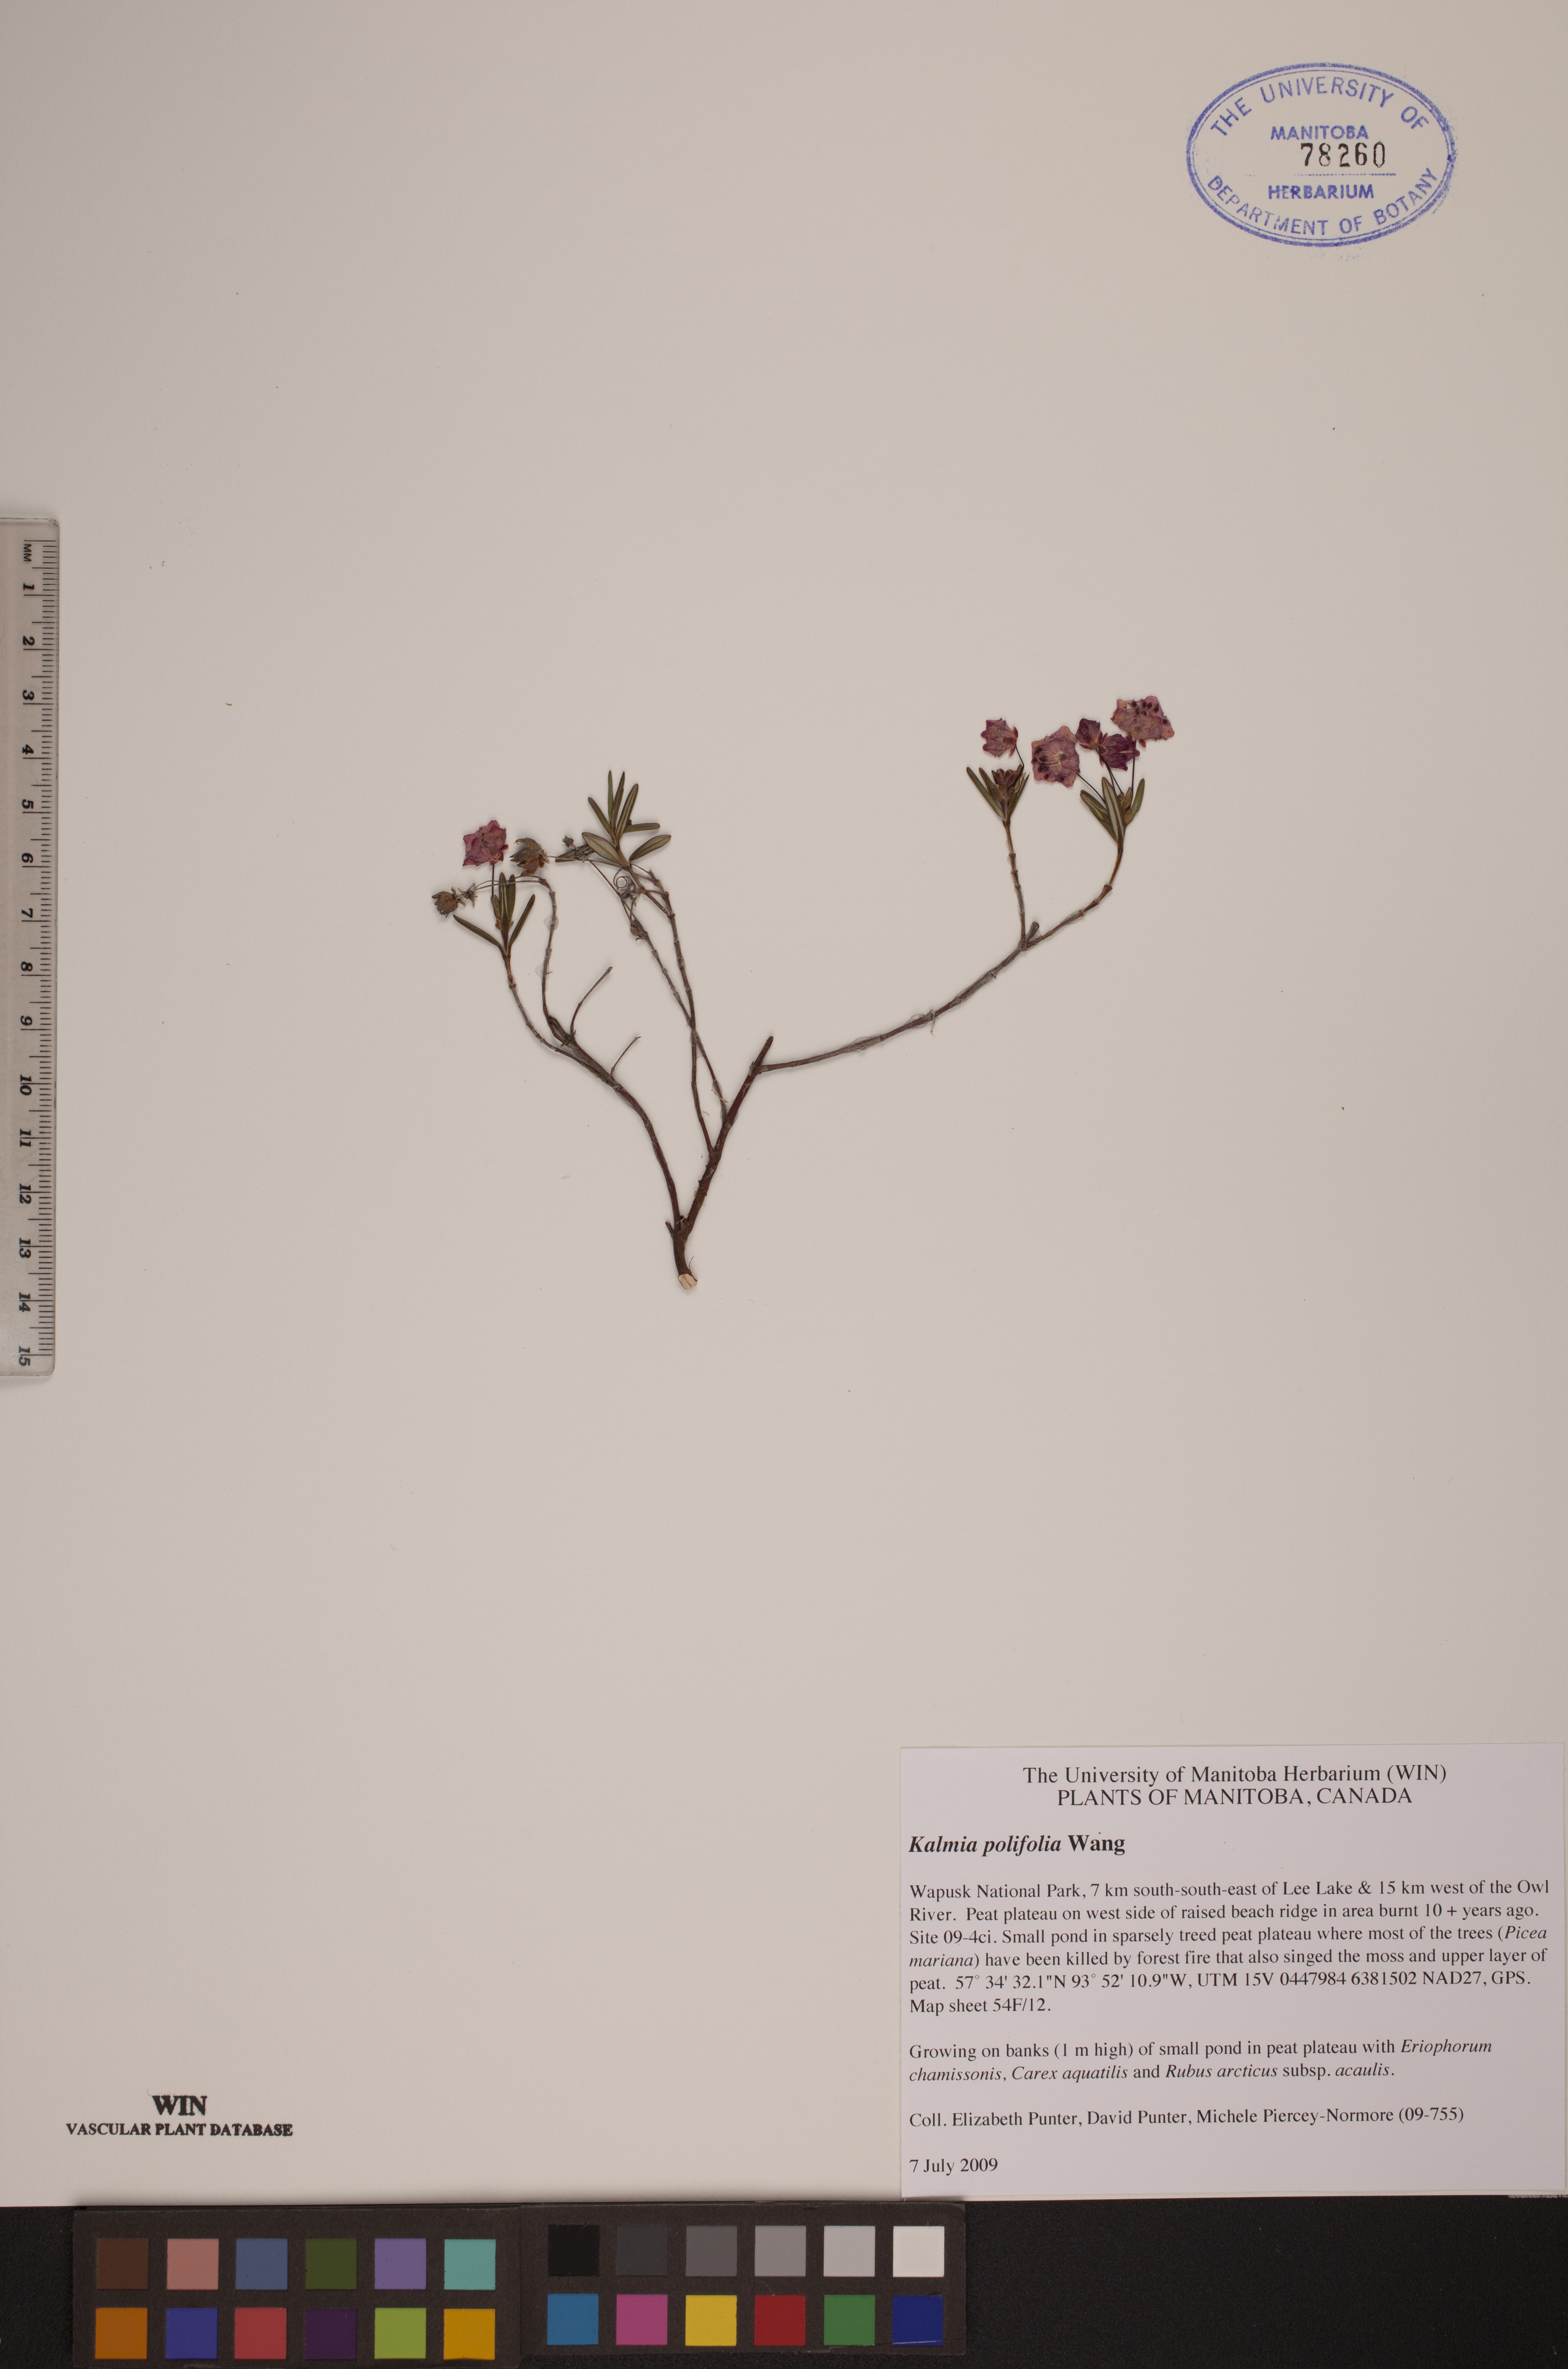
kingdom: Plantae
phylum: Tracheophyta
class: Magnoliopsida
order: Ericales
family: Ericaceae
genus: Kalmia
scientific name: Kalmia polifolia
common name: Bog-laurel
